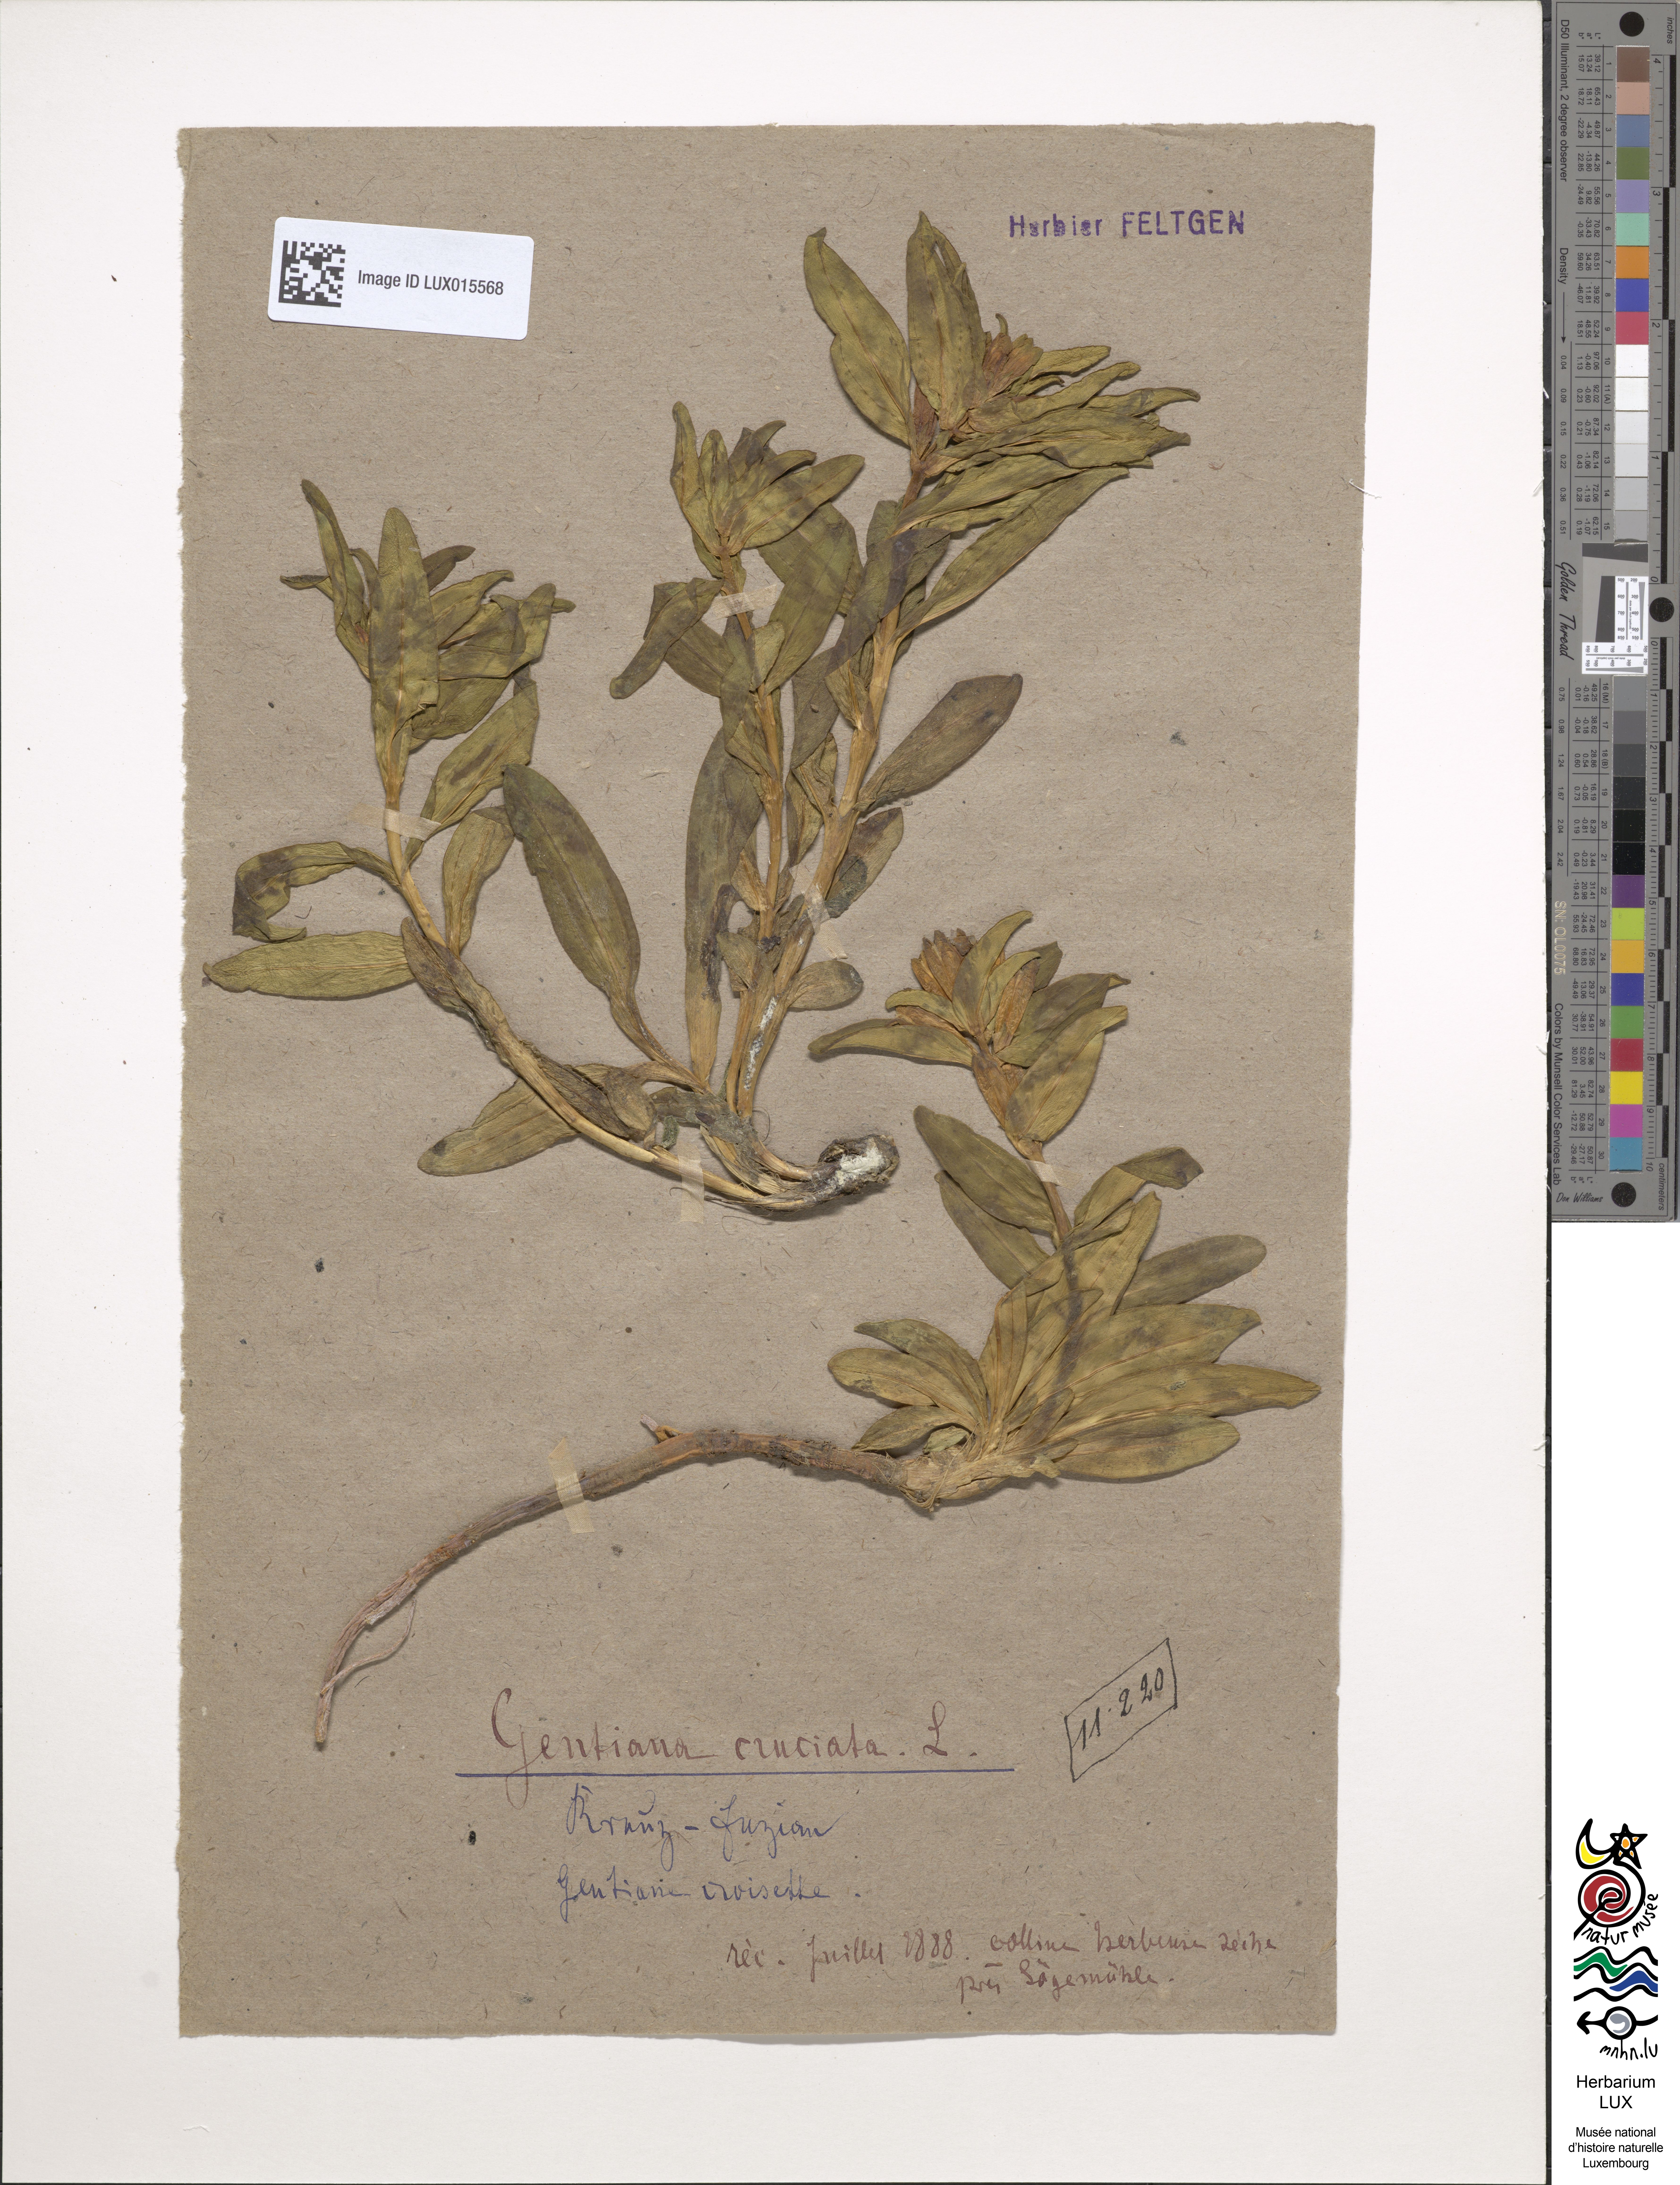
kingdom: Plantae
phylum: Tracheophyta
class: Magnoliopsida
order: Gentianales
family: Gentianaceae
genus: Gentiana
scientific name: Gentiana cruciata
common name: Cross gentian
